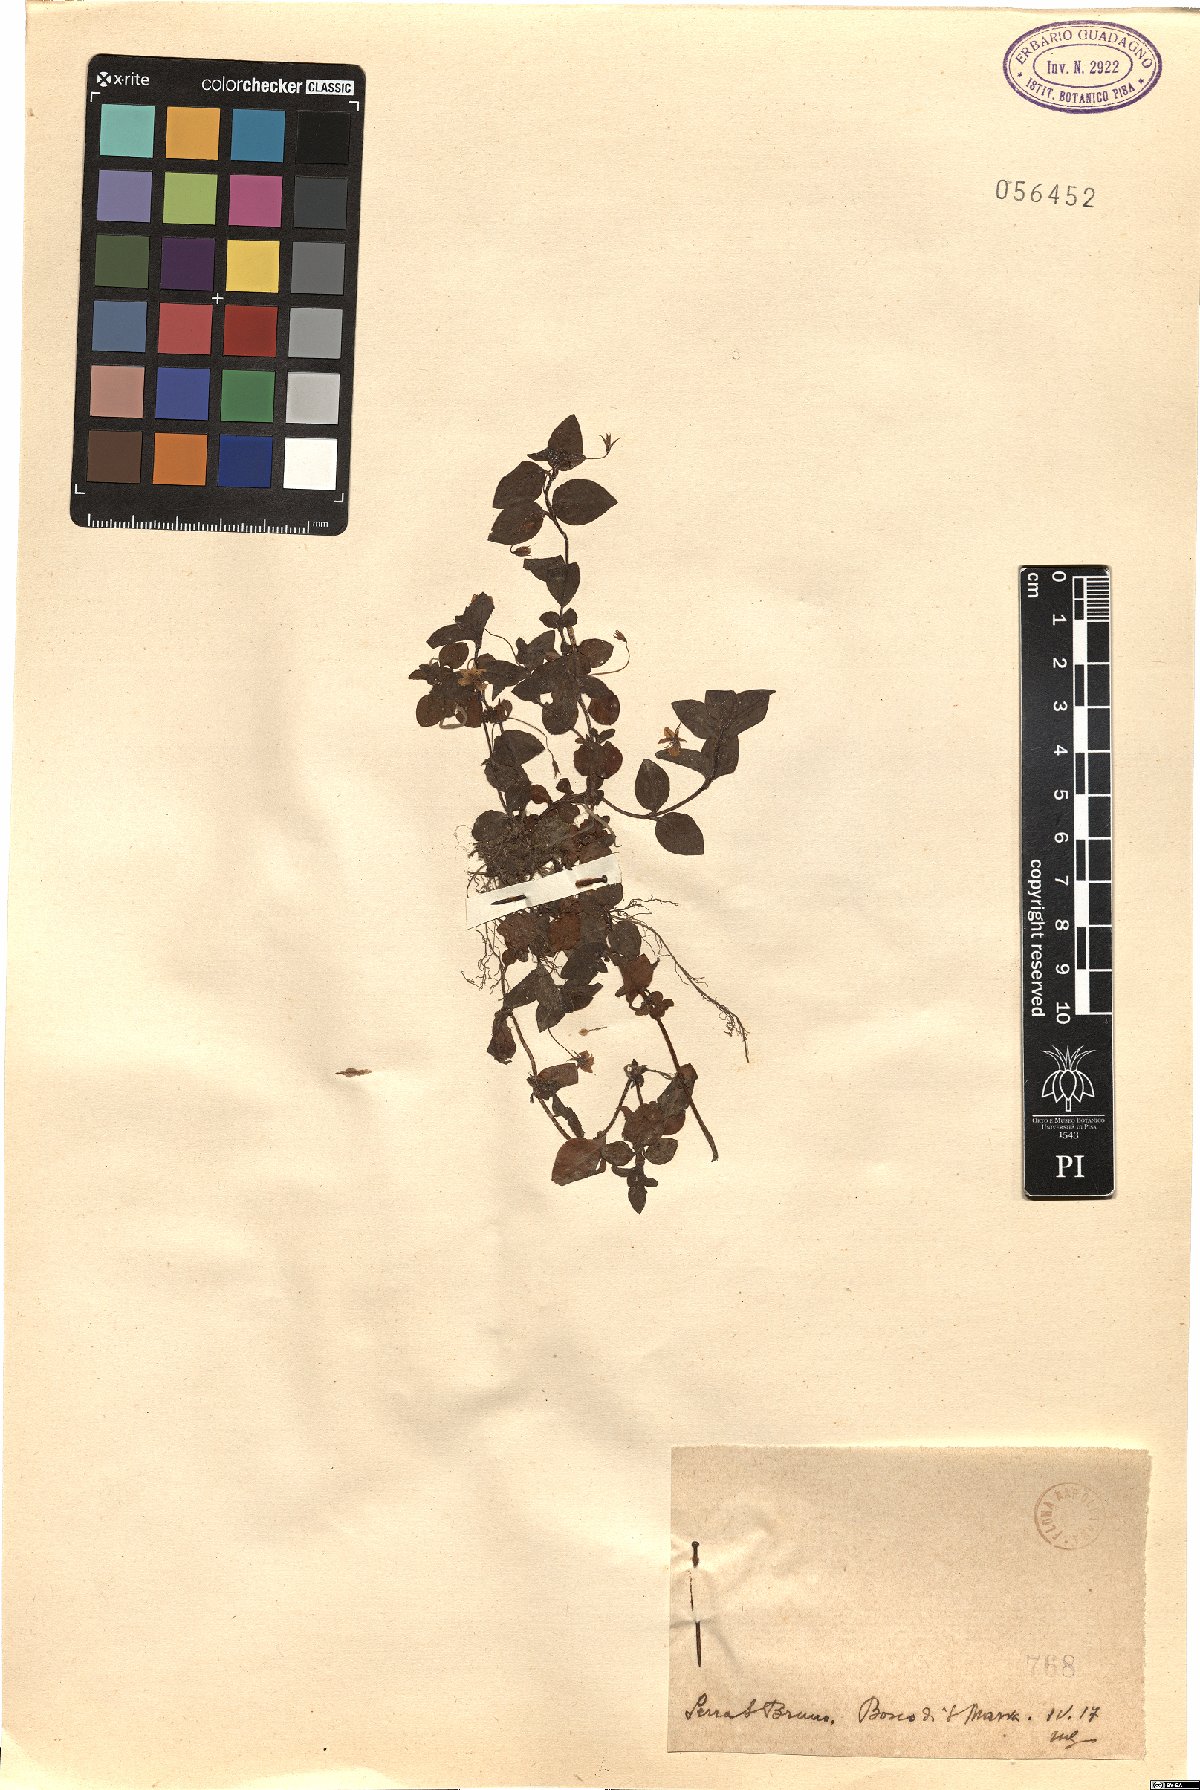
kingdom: Plantae
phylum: Tracheophyta
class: Magnoliopsida
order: Ericales
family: Primulaceae
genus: Lysimachia
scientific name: Lysimachia
